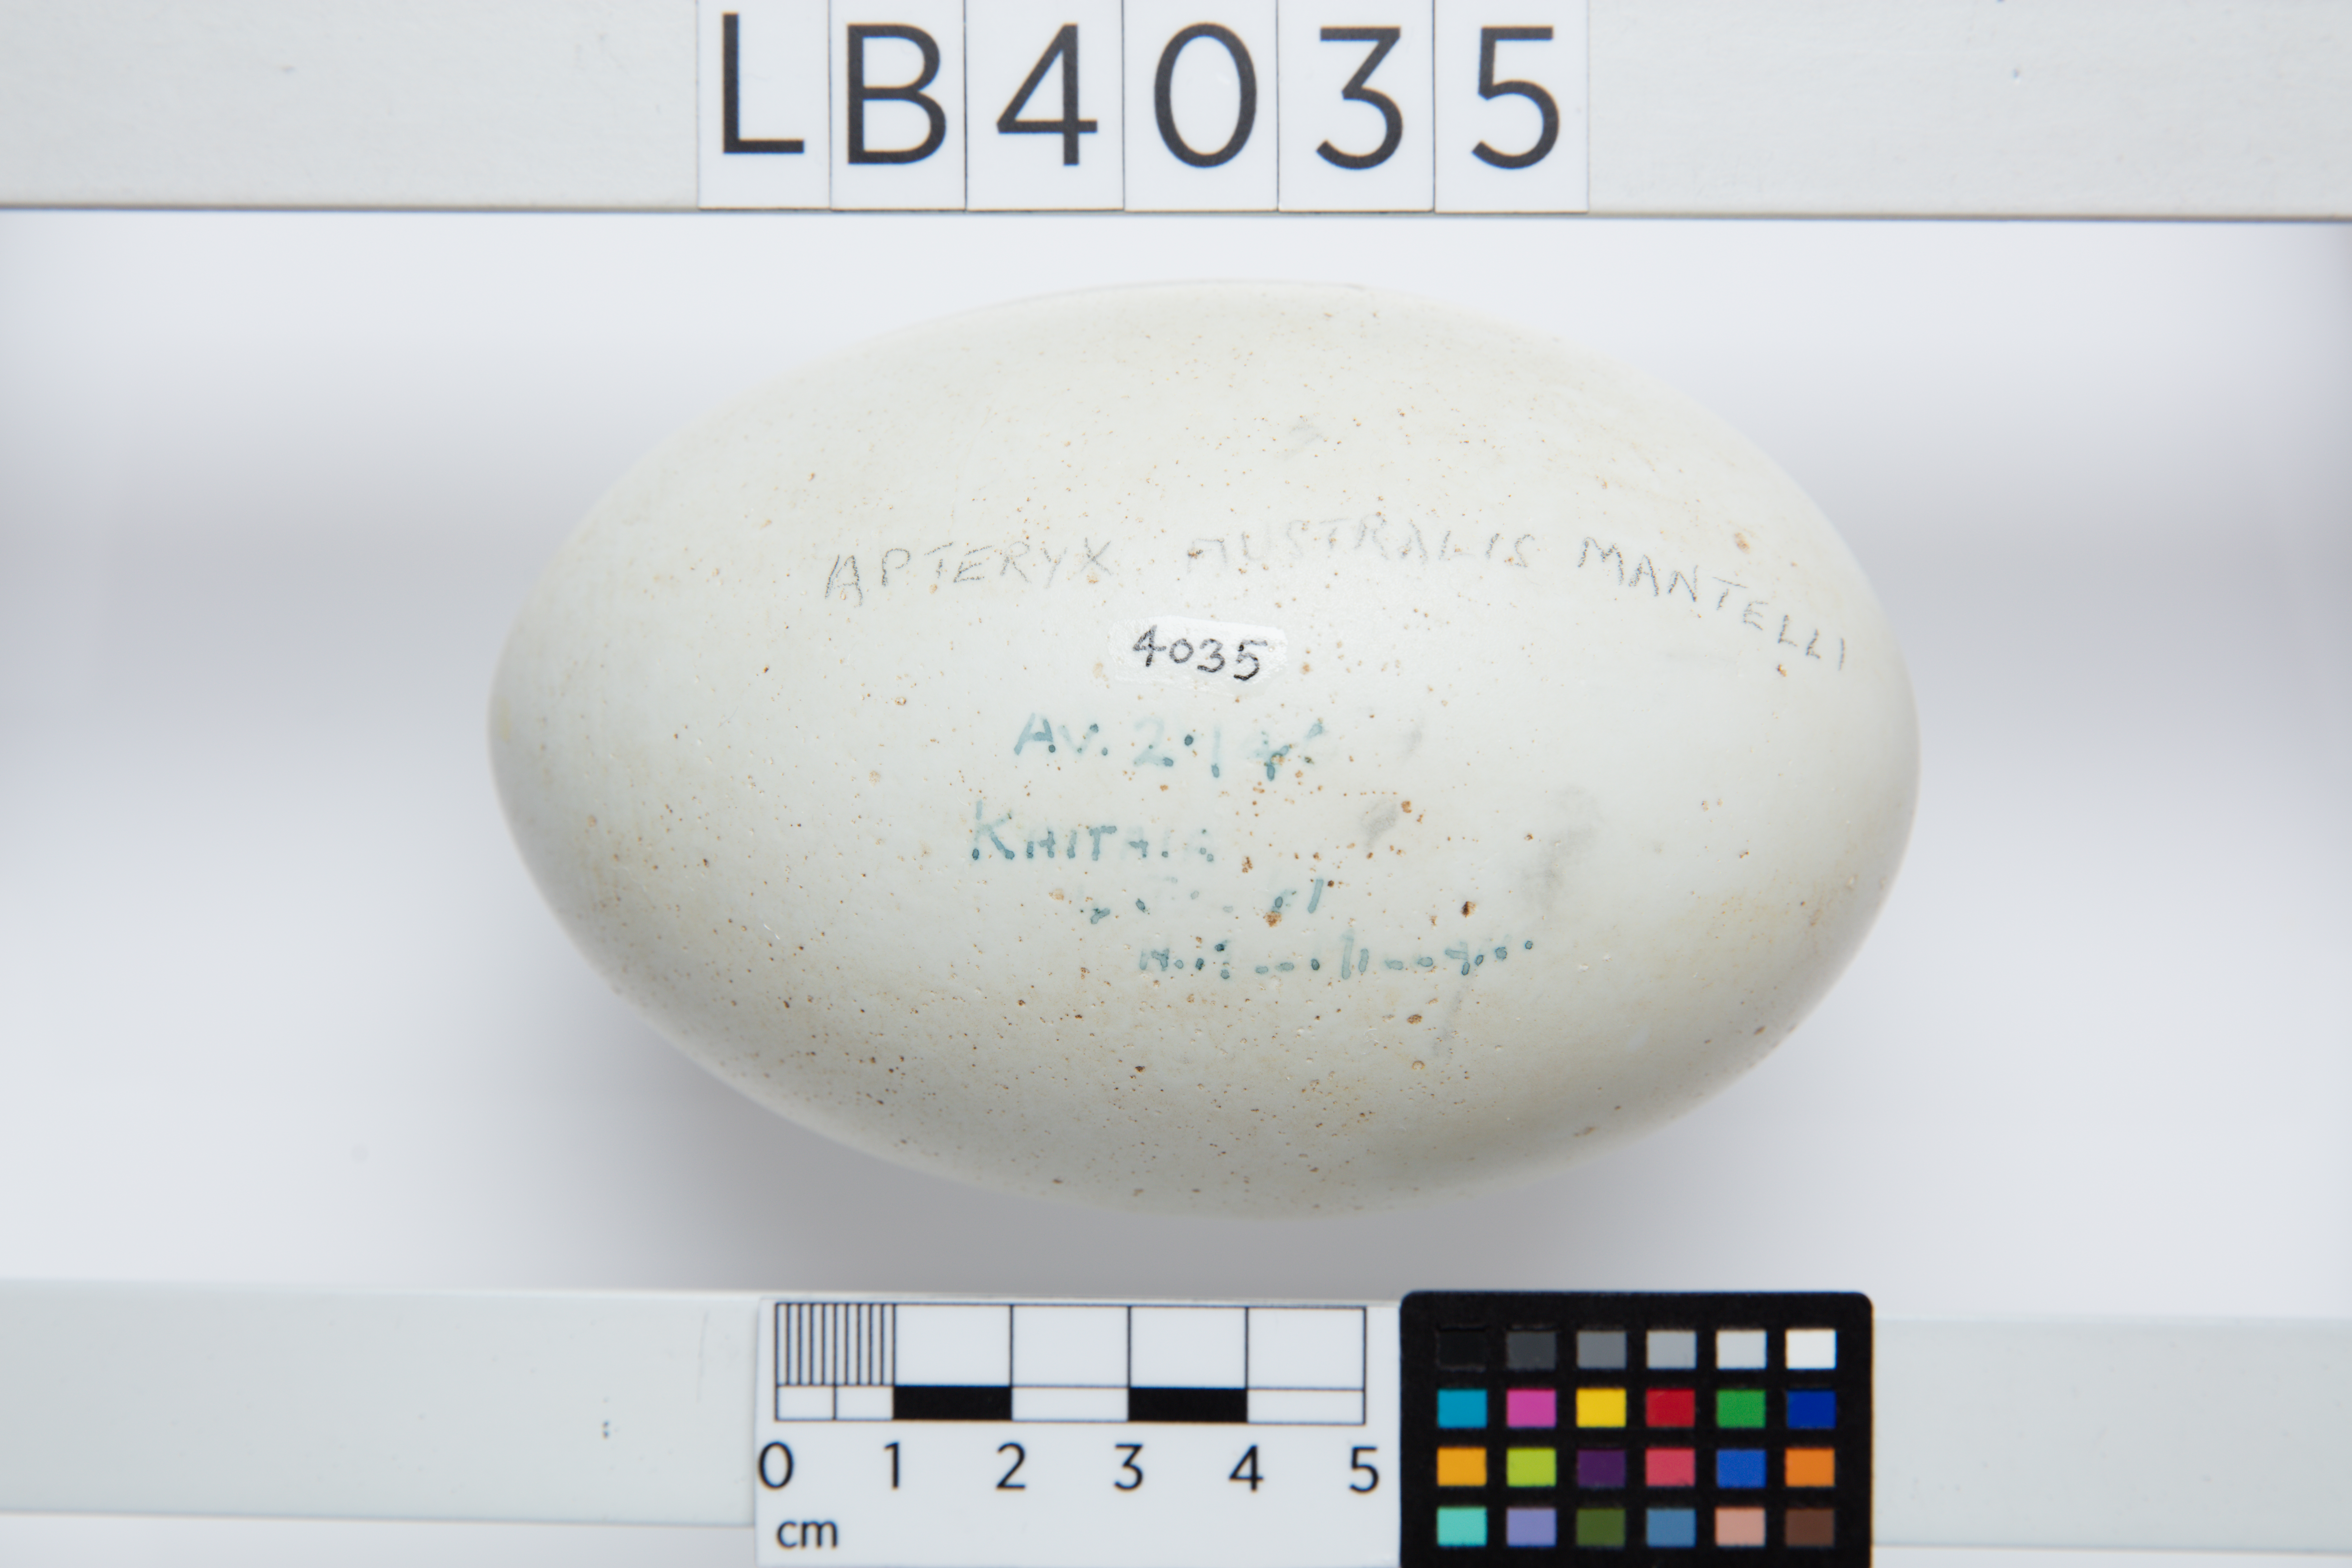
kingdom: Animalia
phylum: Chordata
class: Aves
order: Apterygiformes
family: Apterygidae
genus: Apteryx
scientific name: Apteryx mantelli
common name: North island brown kiwi
